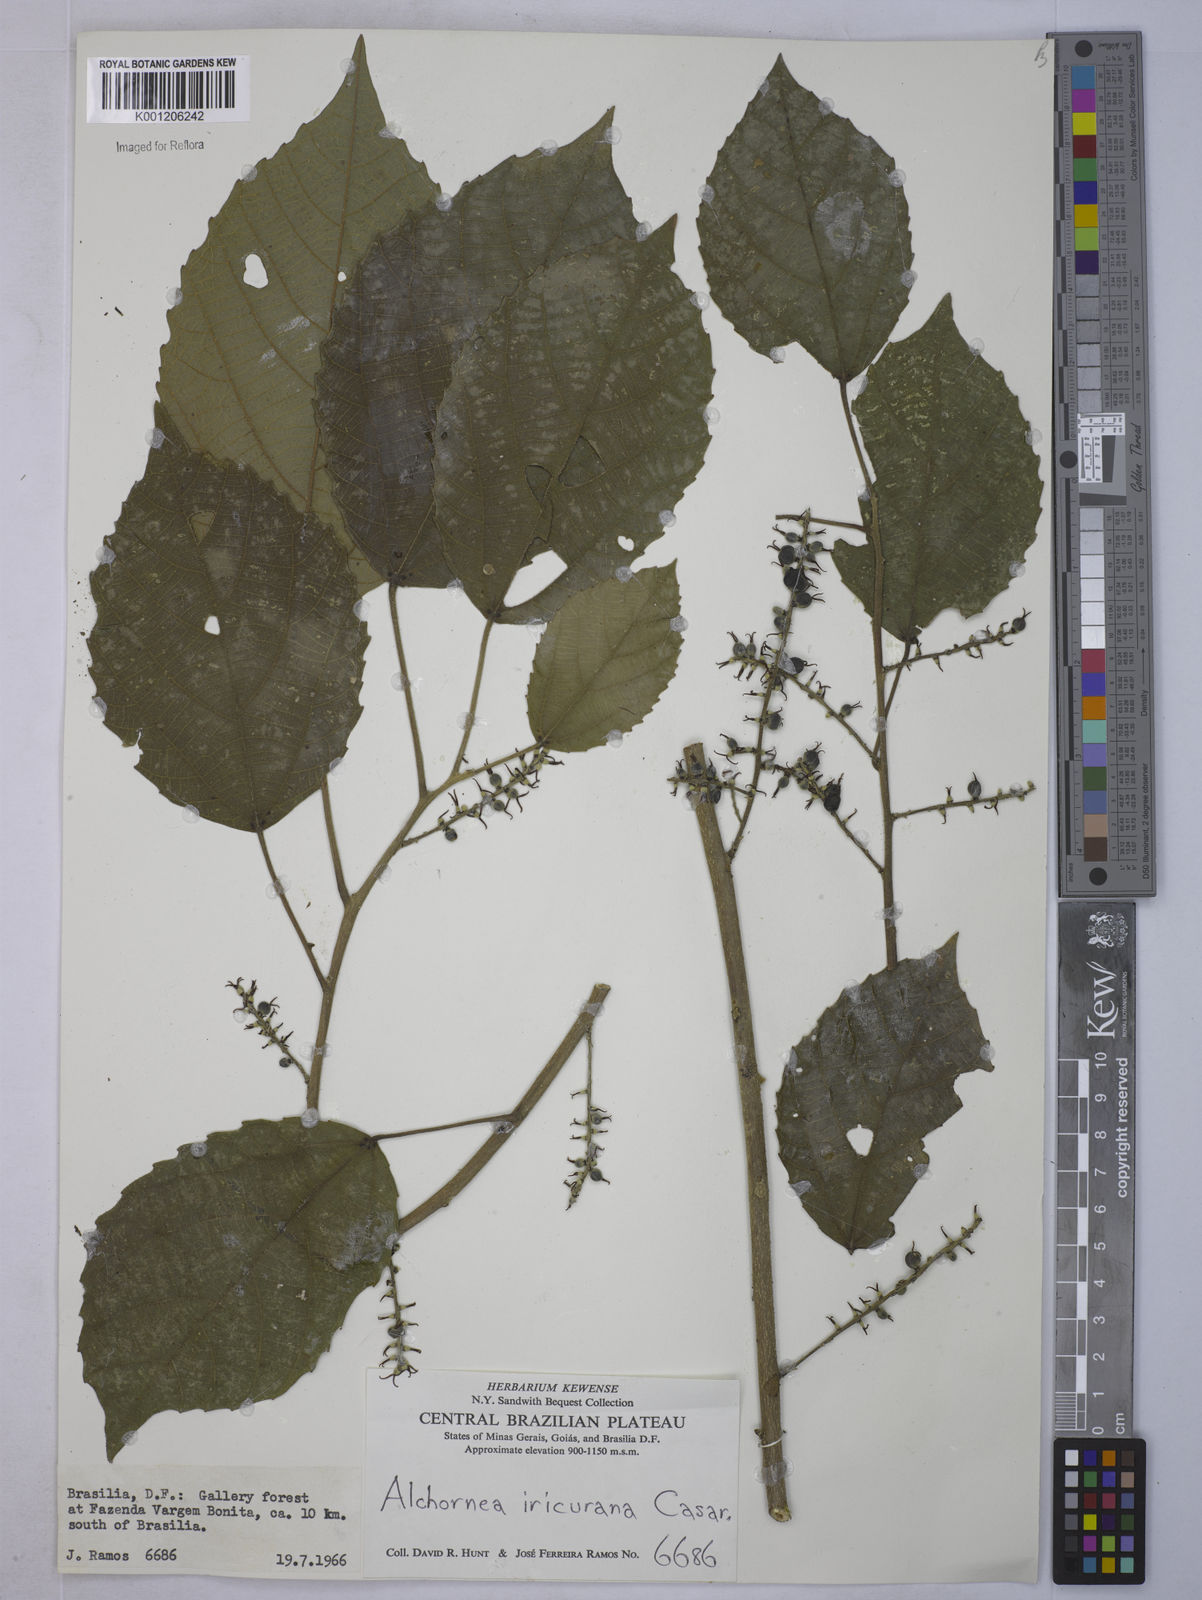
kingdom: Plantae
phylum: Tracheophyta
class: Magnoliopsida
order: Malpighiales
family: Euphorbiaceae
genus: Alchornea
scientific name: Alchornea glandulosa
